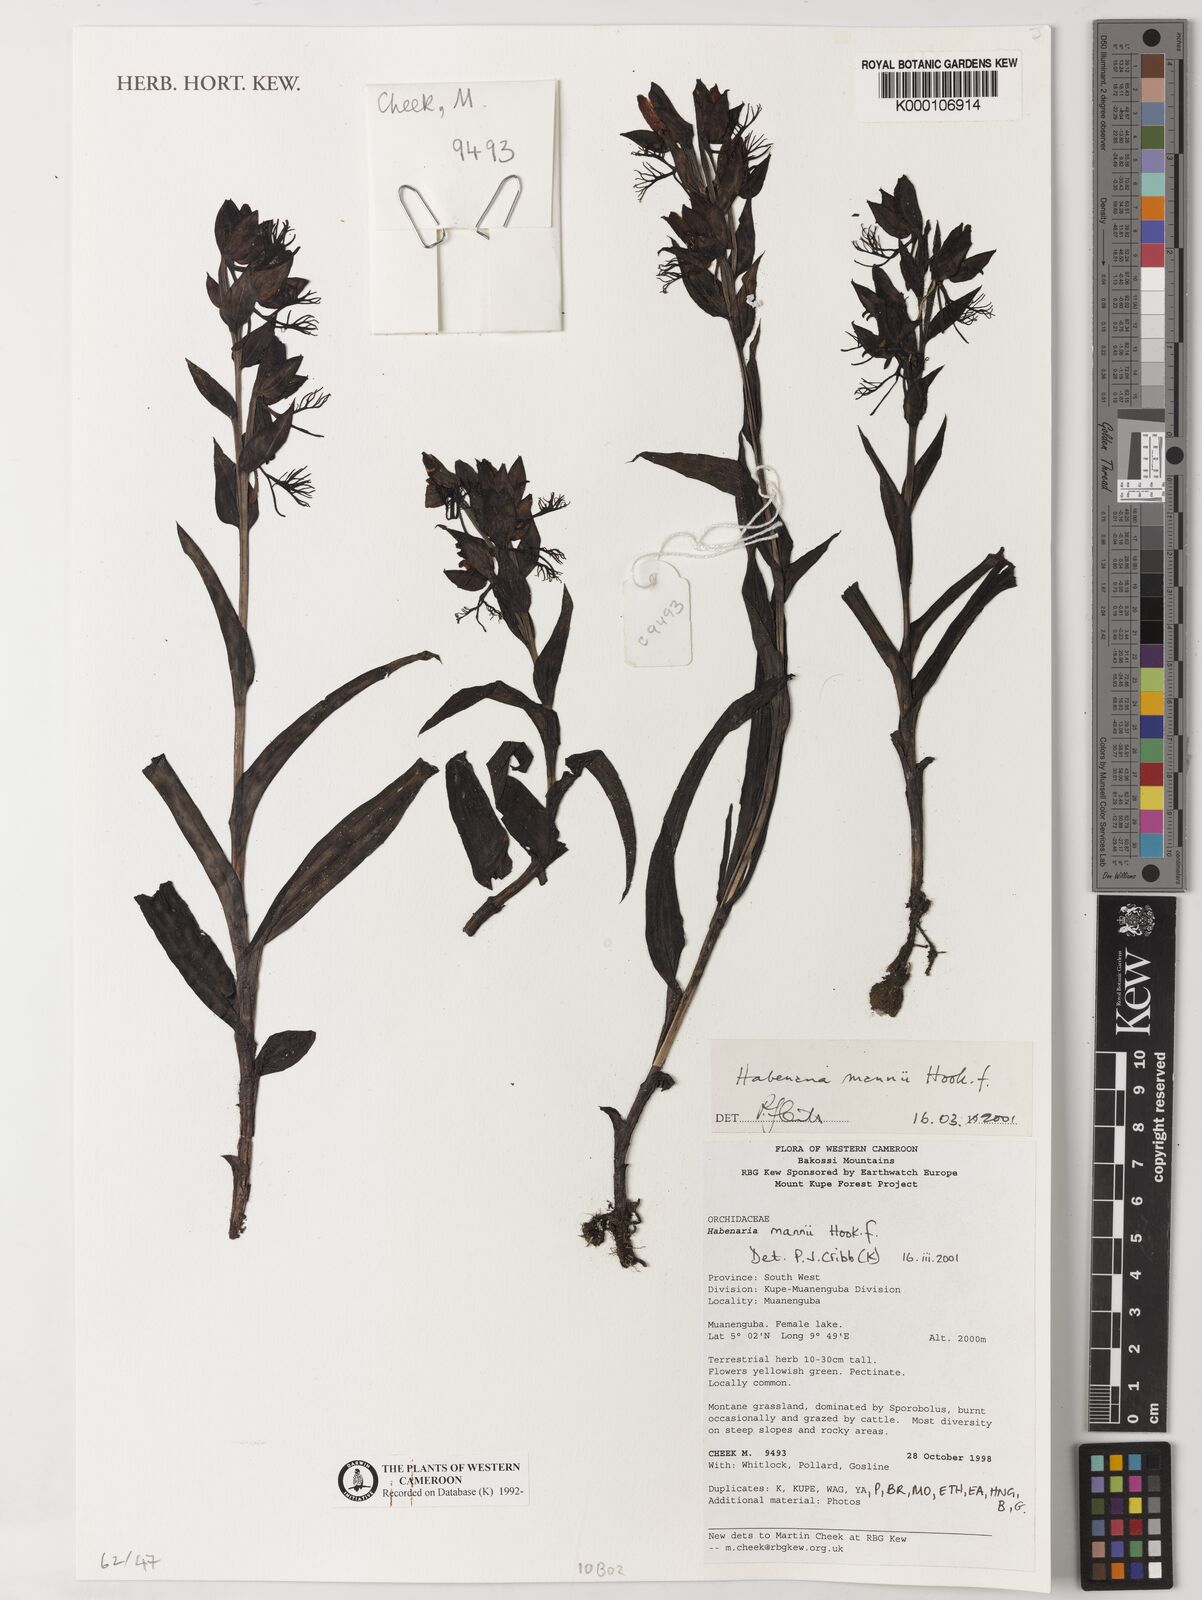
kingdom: Plantae
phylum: Tracheophyta
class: Liliopsida
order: Asparagales
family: Orchidaceae
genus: Habenaria
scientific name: Habenaria mannii
